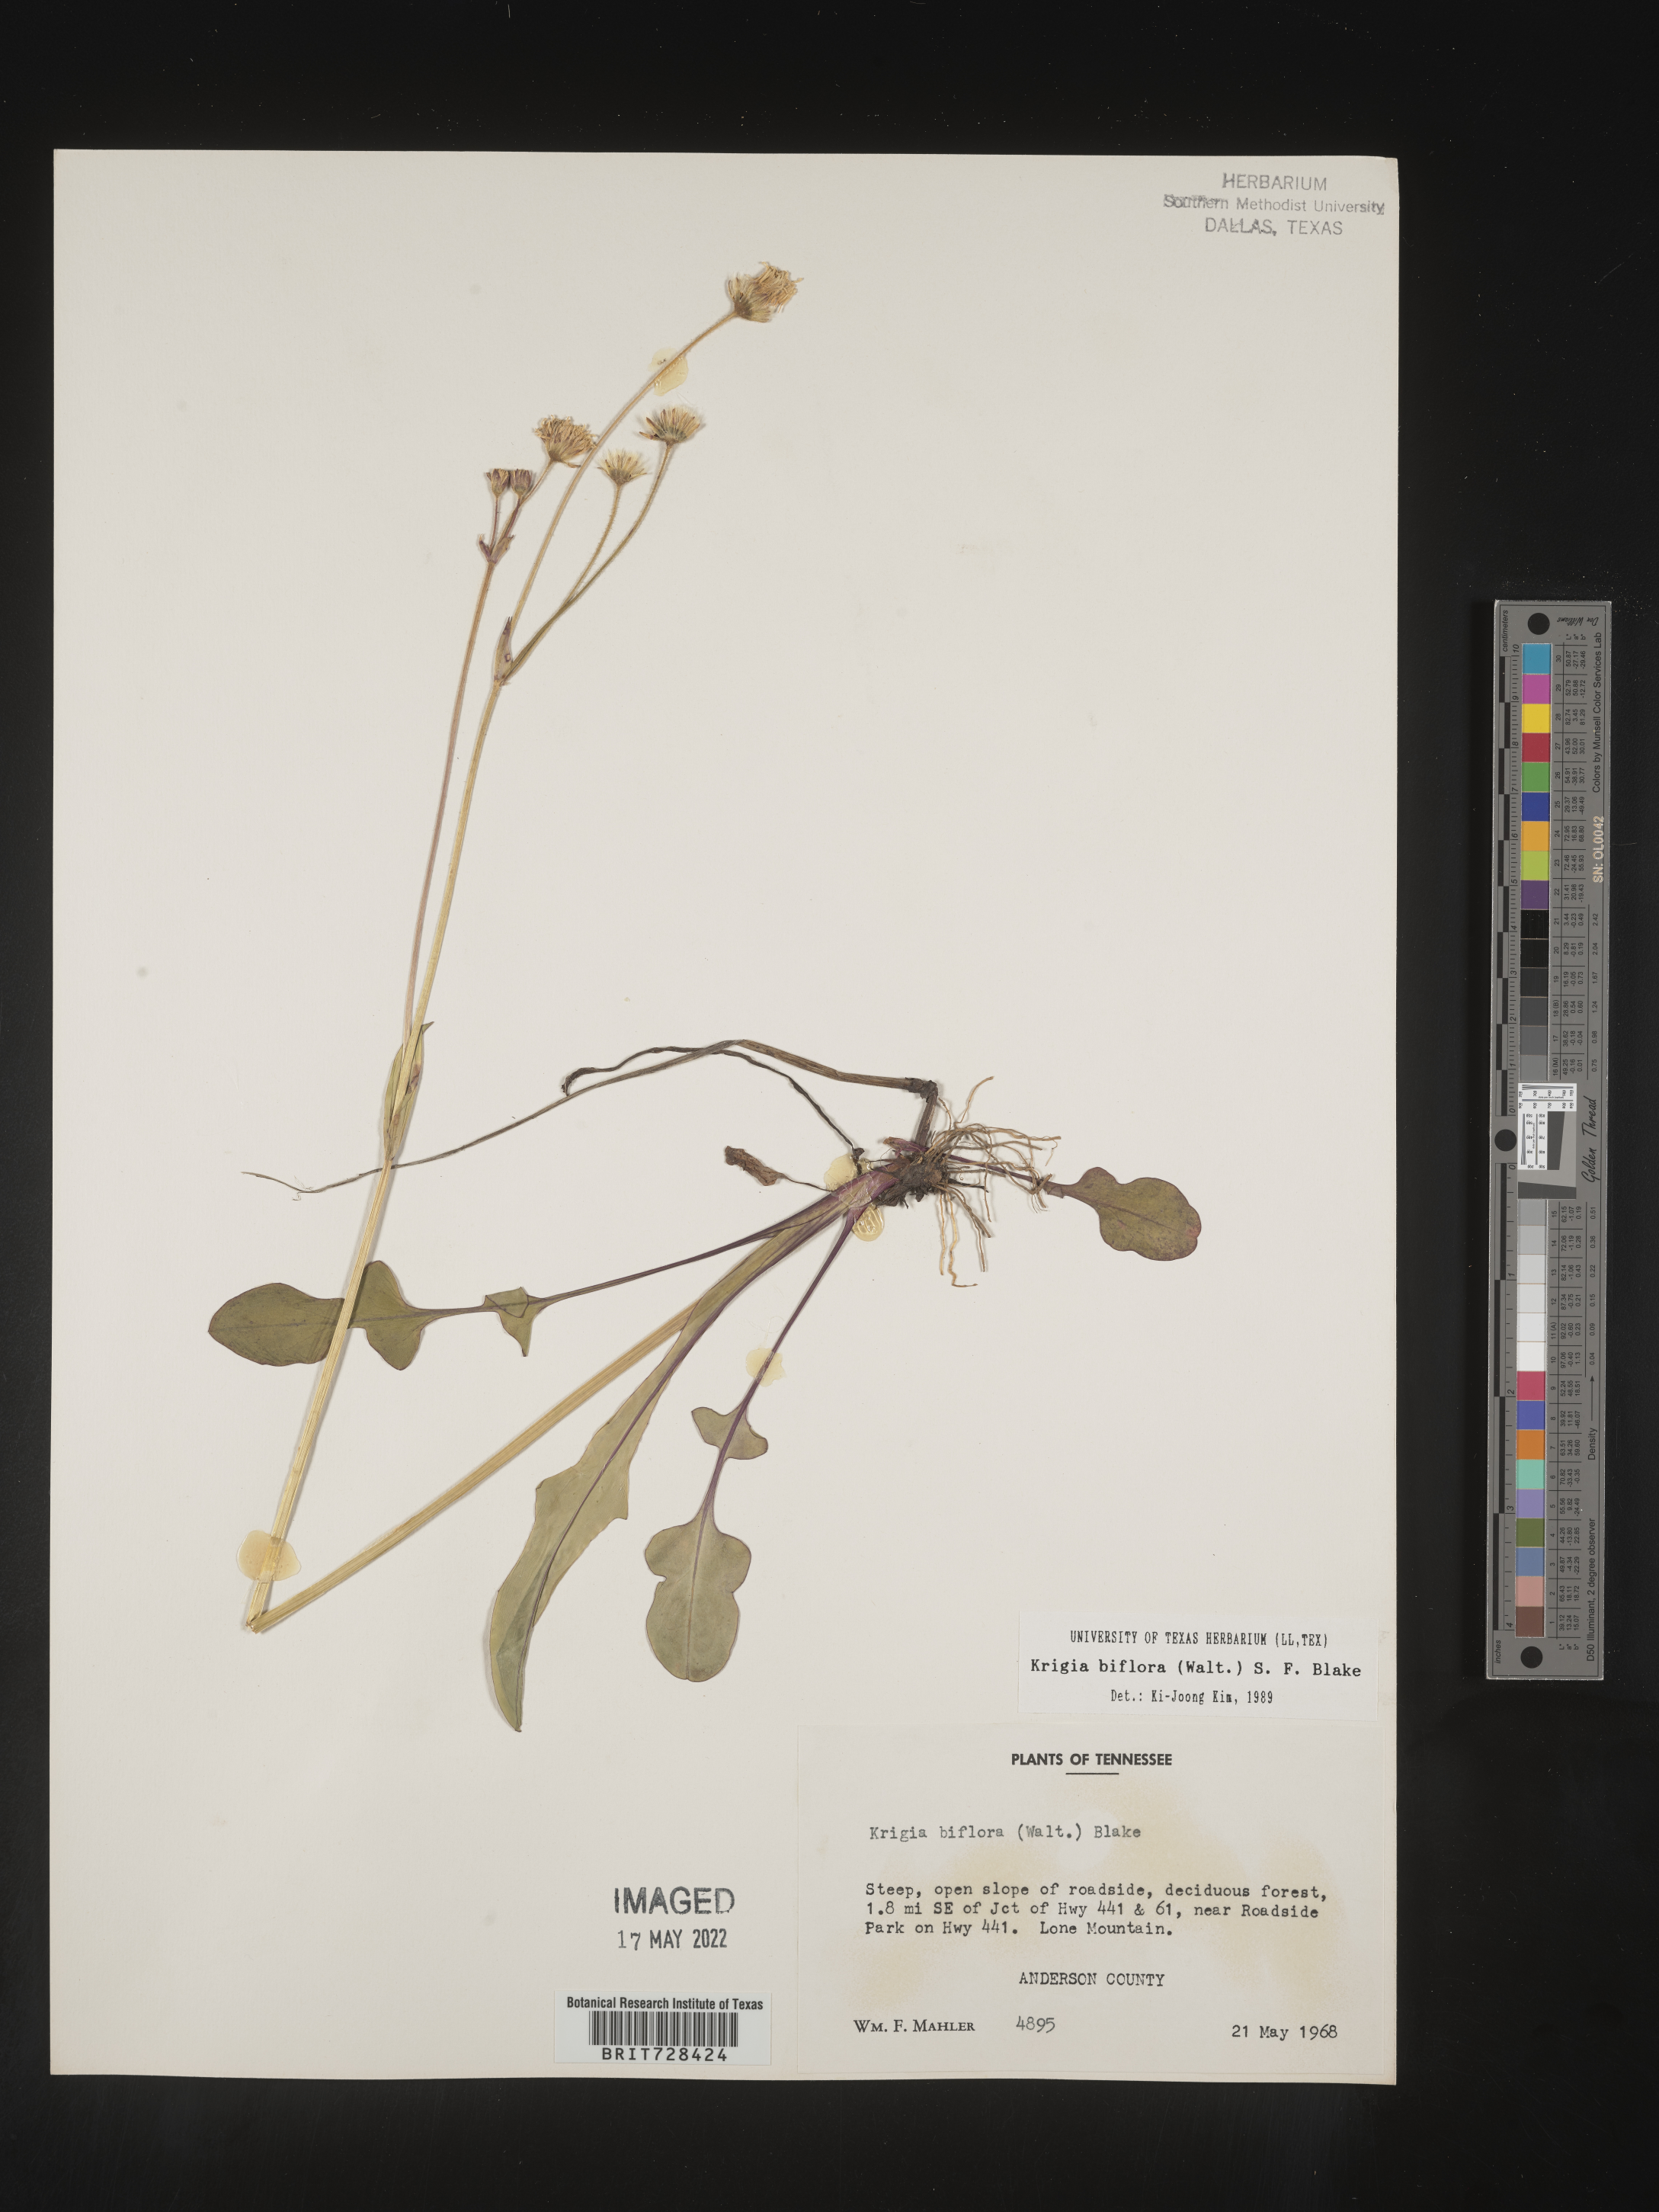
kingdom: Plantae
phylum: Tracheophyta
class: Magnoliopsida
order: Asterales
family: Asteraceae
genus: Krigia
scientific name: Krigia biflora
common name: Orange dwarf-dandelion
